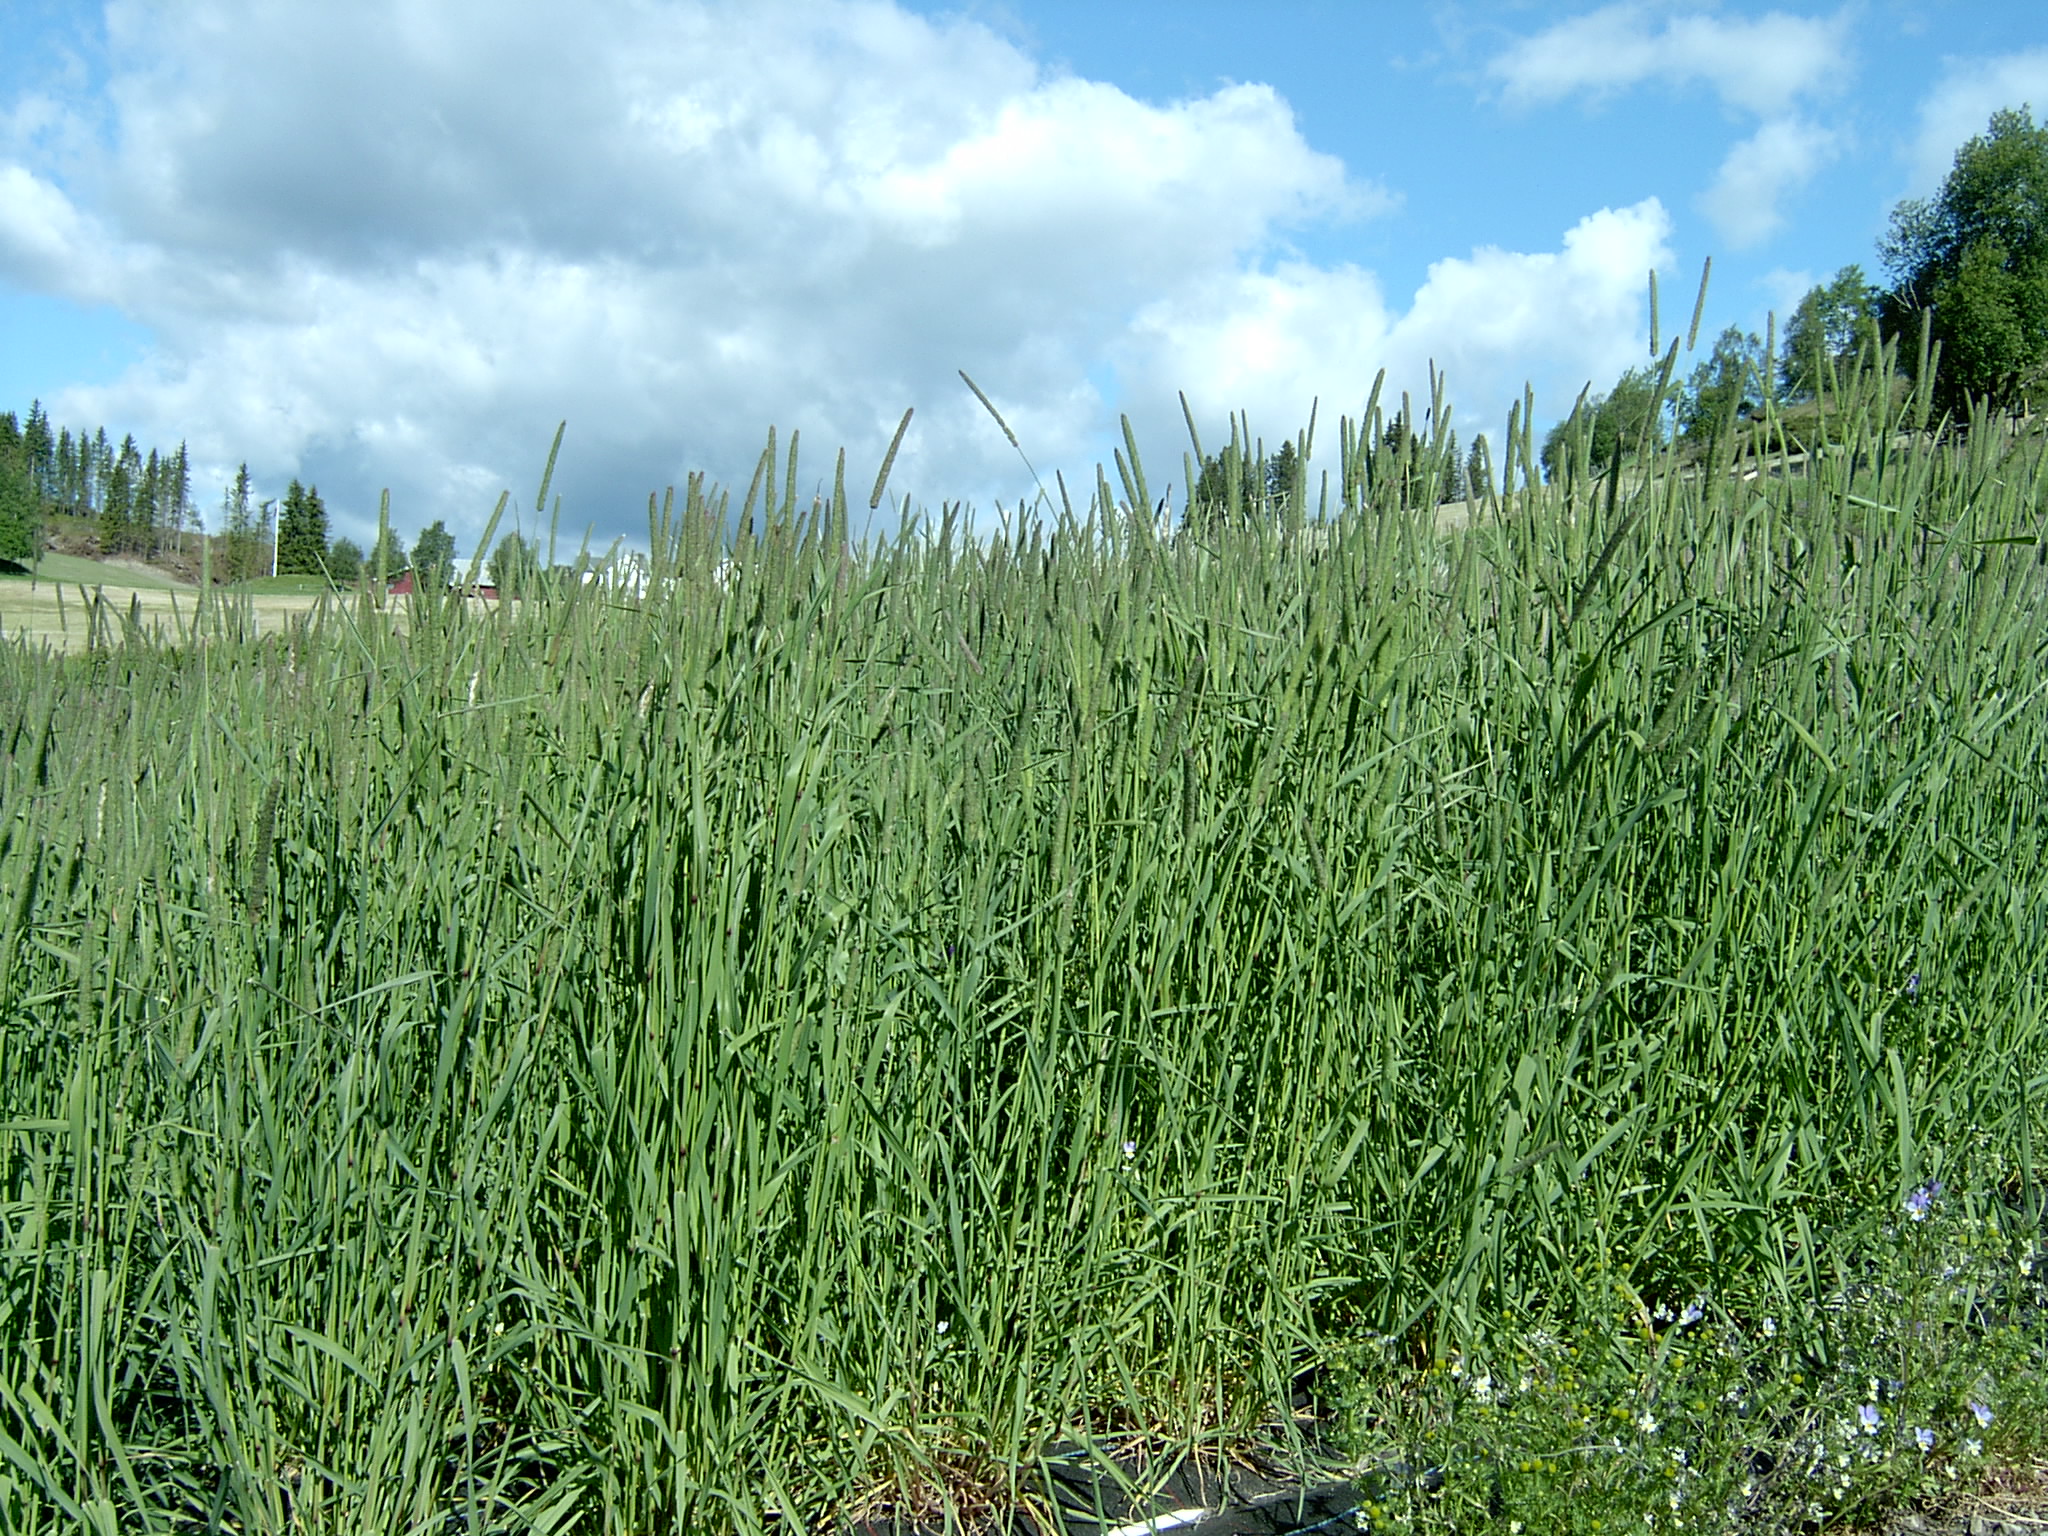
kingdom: Plantae
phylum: Tracheophyta
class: Liliopsida
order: Poales
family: Poaceae
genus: Phleum
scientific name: Phleum pratense
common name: Timothy grass
